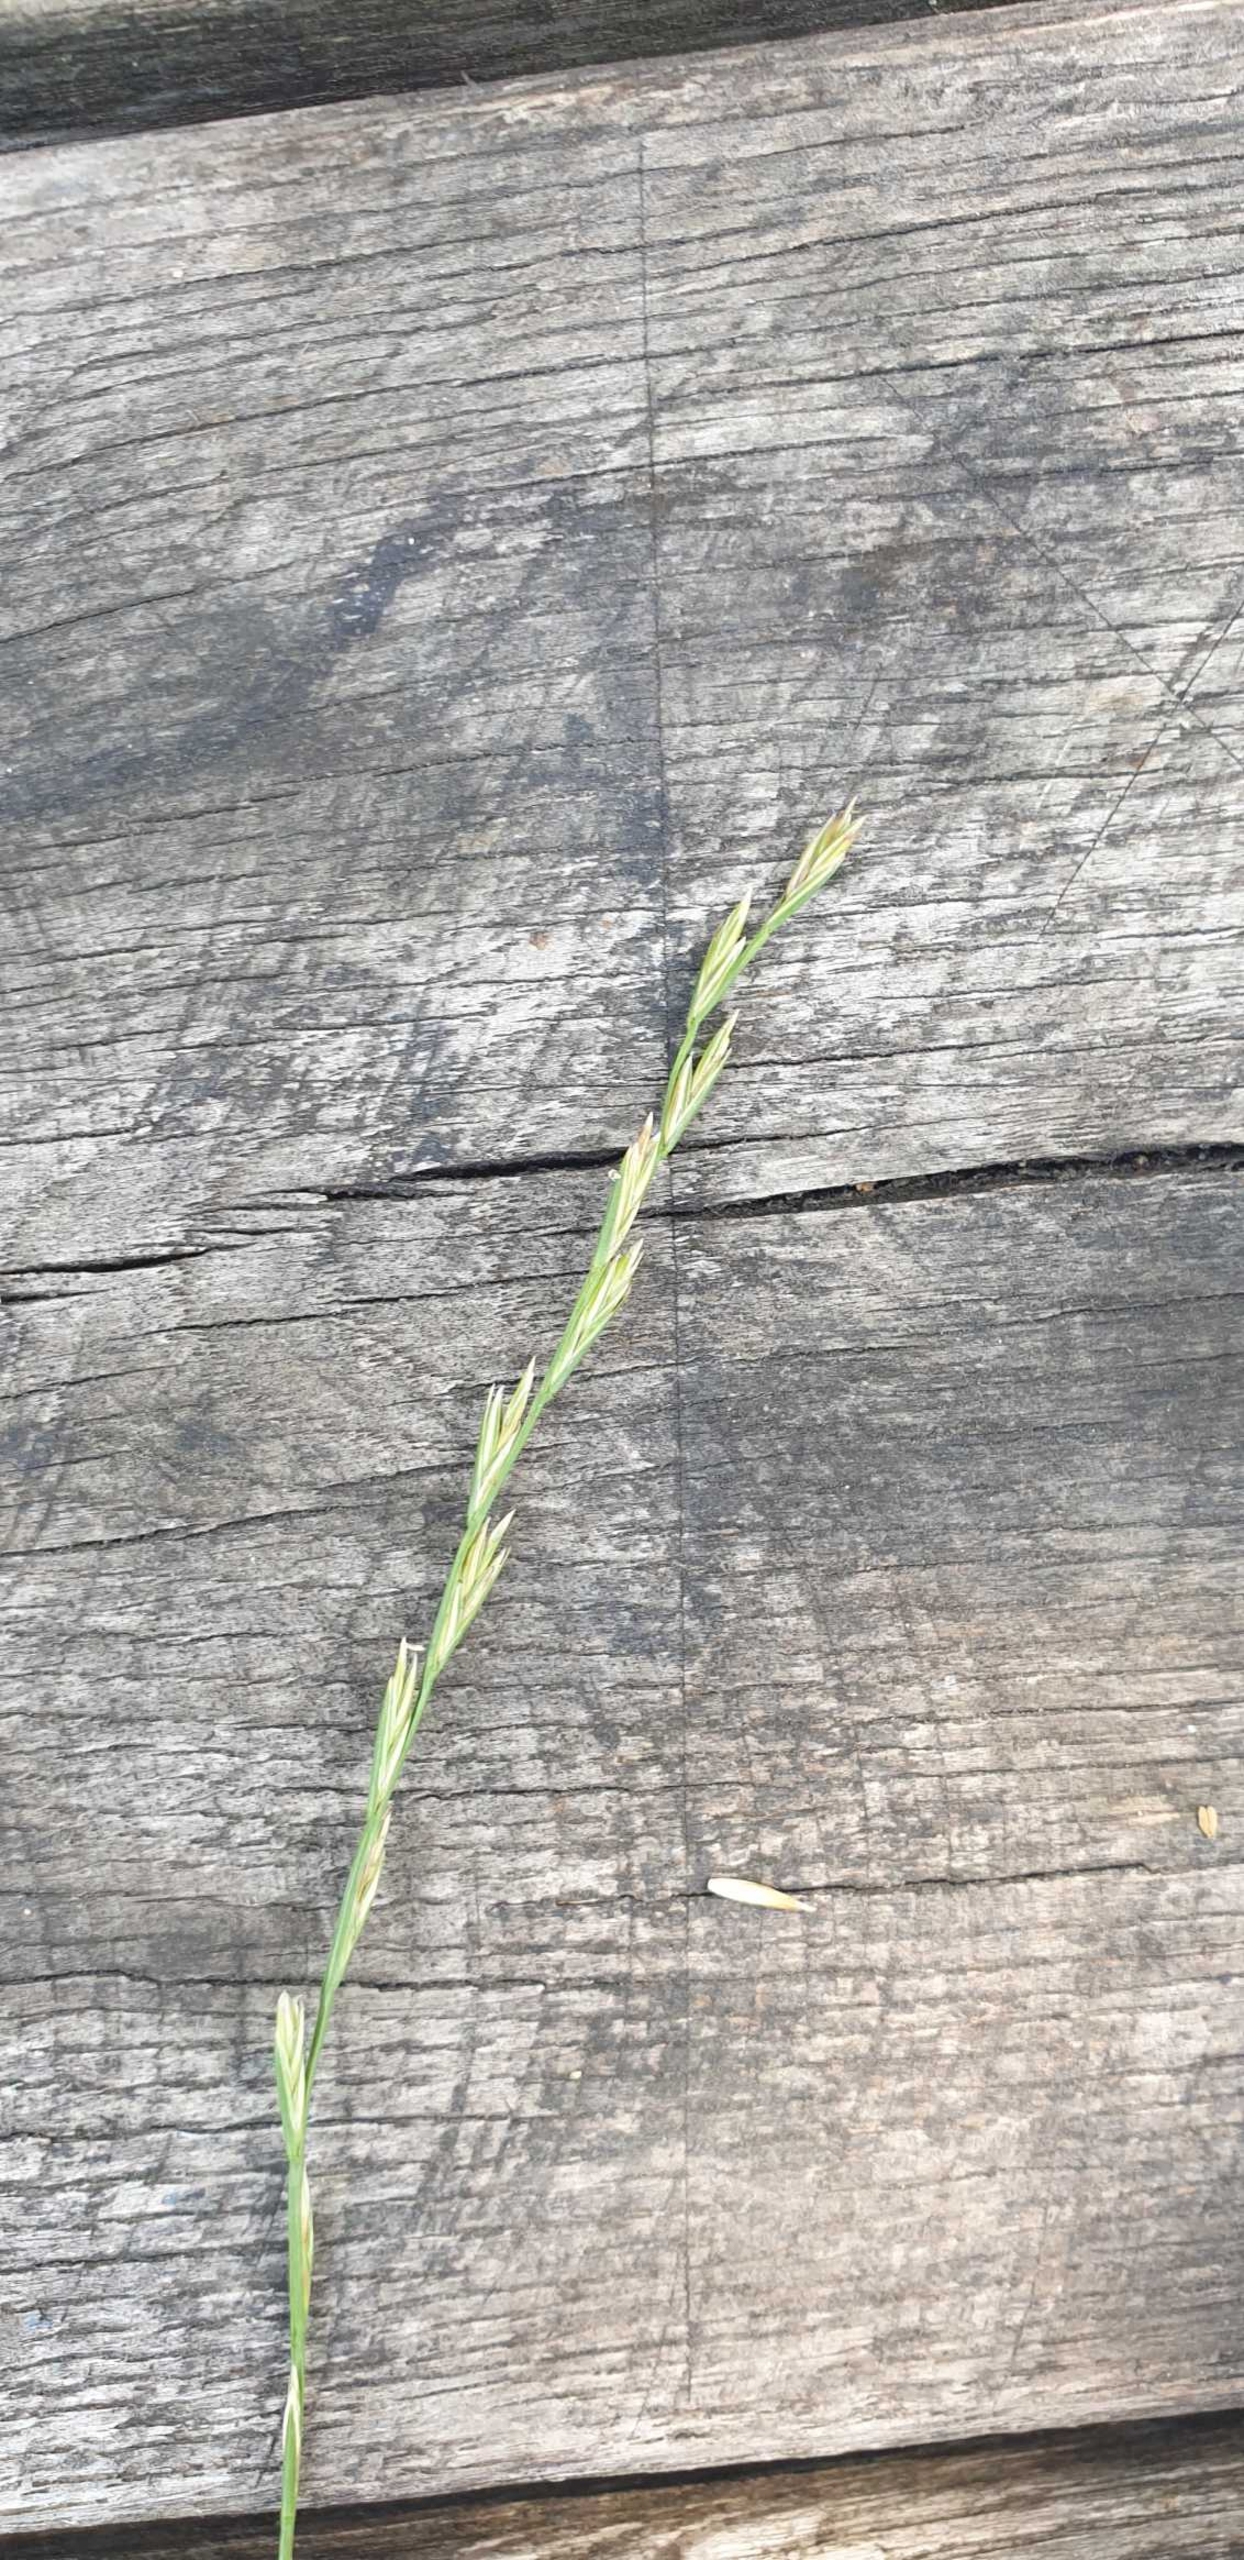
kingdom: Plantae
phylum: Tracheophyta
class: Liliopsida
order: Poales
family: Poaceae
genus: Lolium
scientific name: Lolium perenne
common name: Almindelig rajgræs
